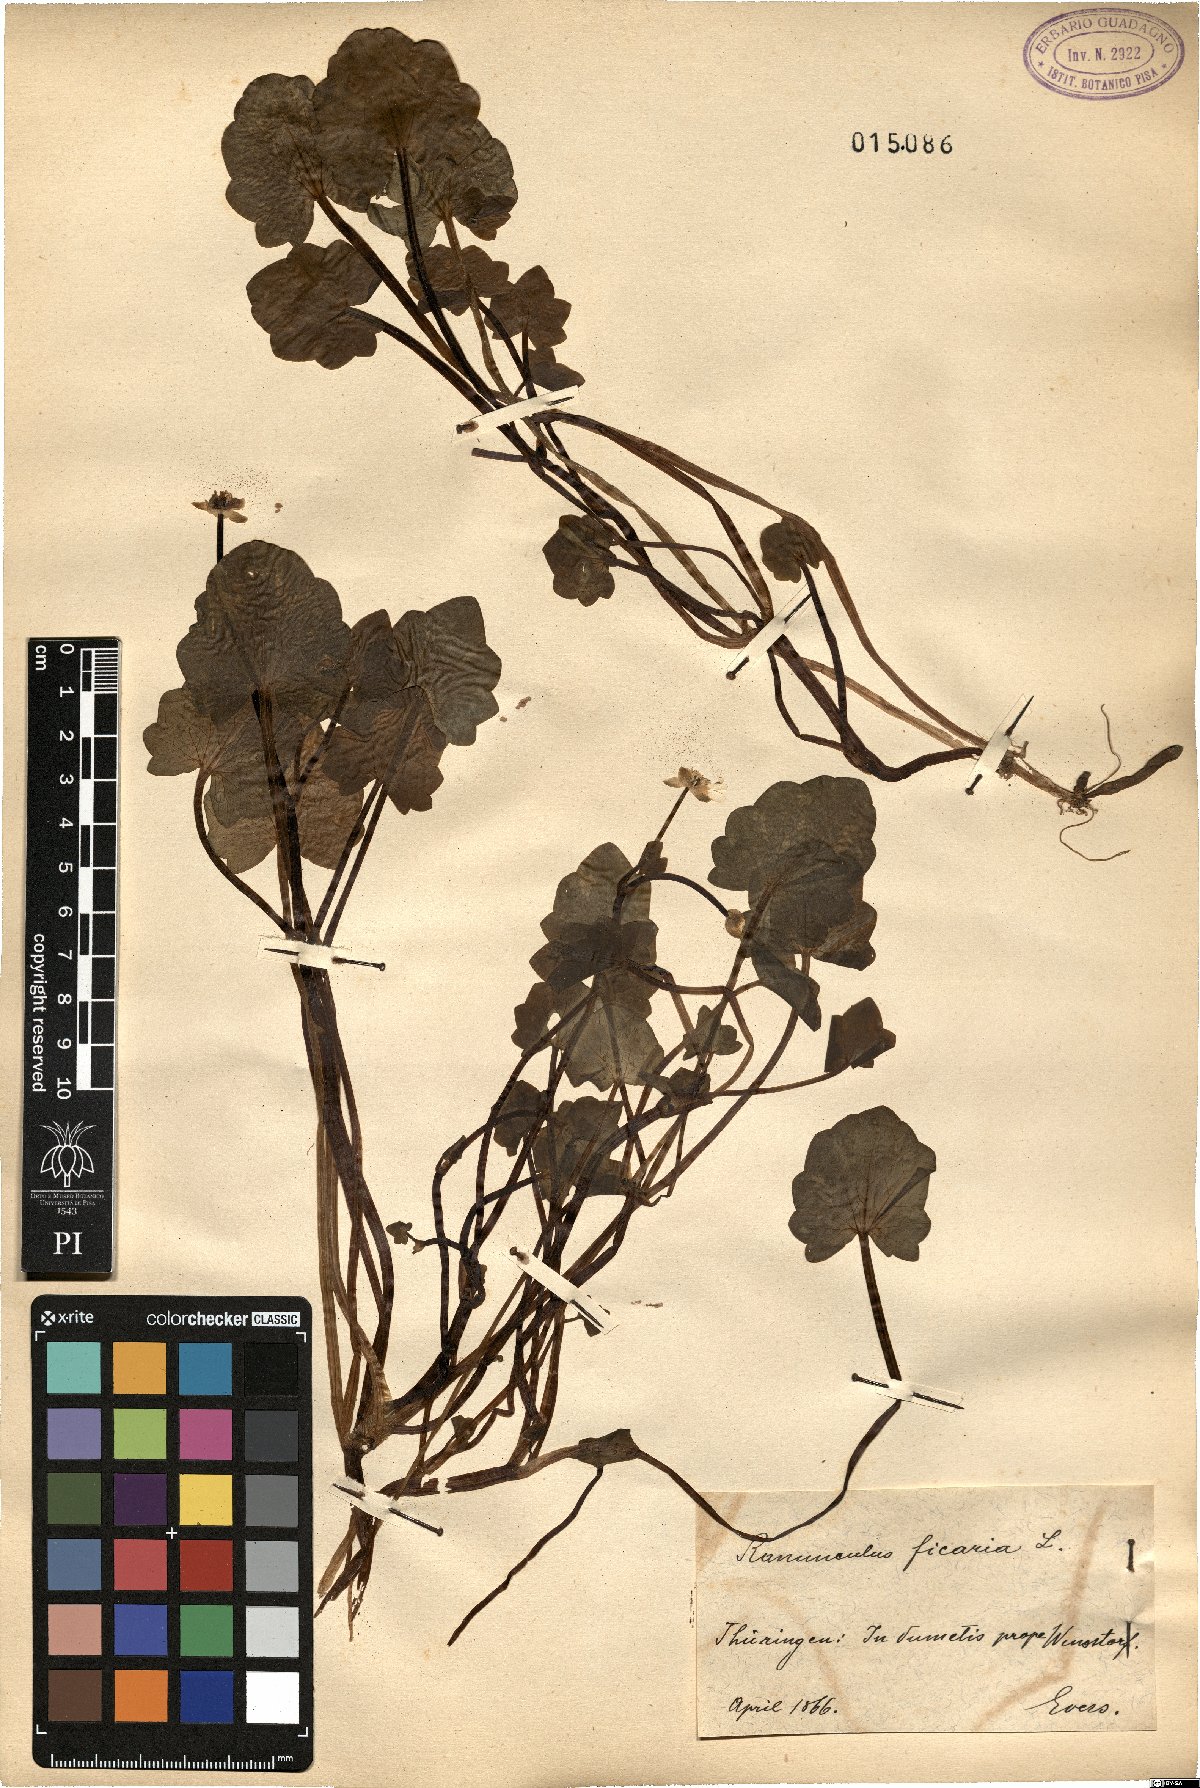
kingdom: Plantae
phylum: Tracheophyta
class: Magnoliopsida
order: Ranunculales
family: Ranunculaceae
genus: Ficaria
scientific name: Ficaria verna
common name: Lesser celandine
